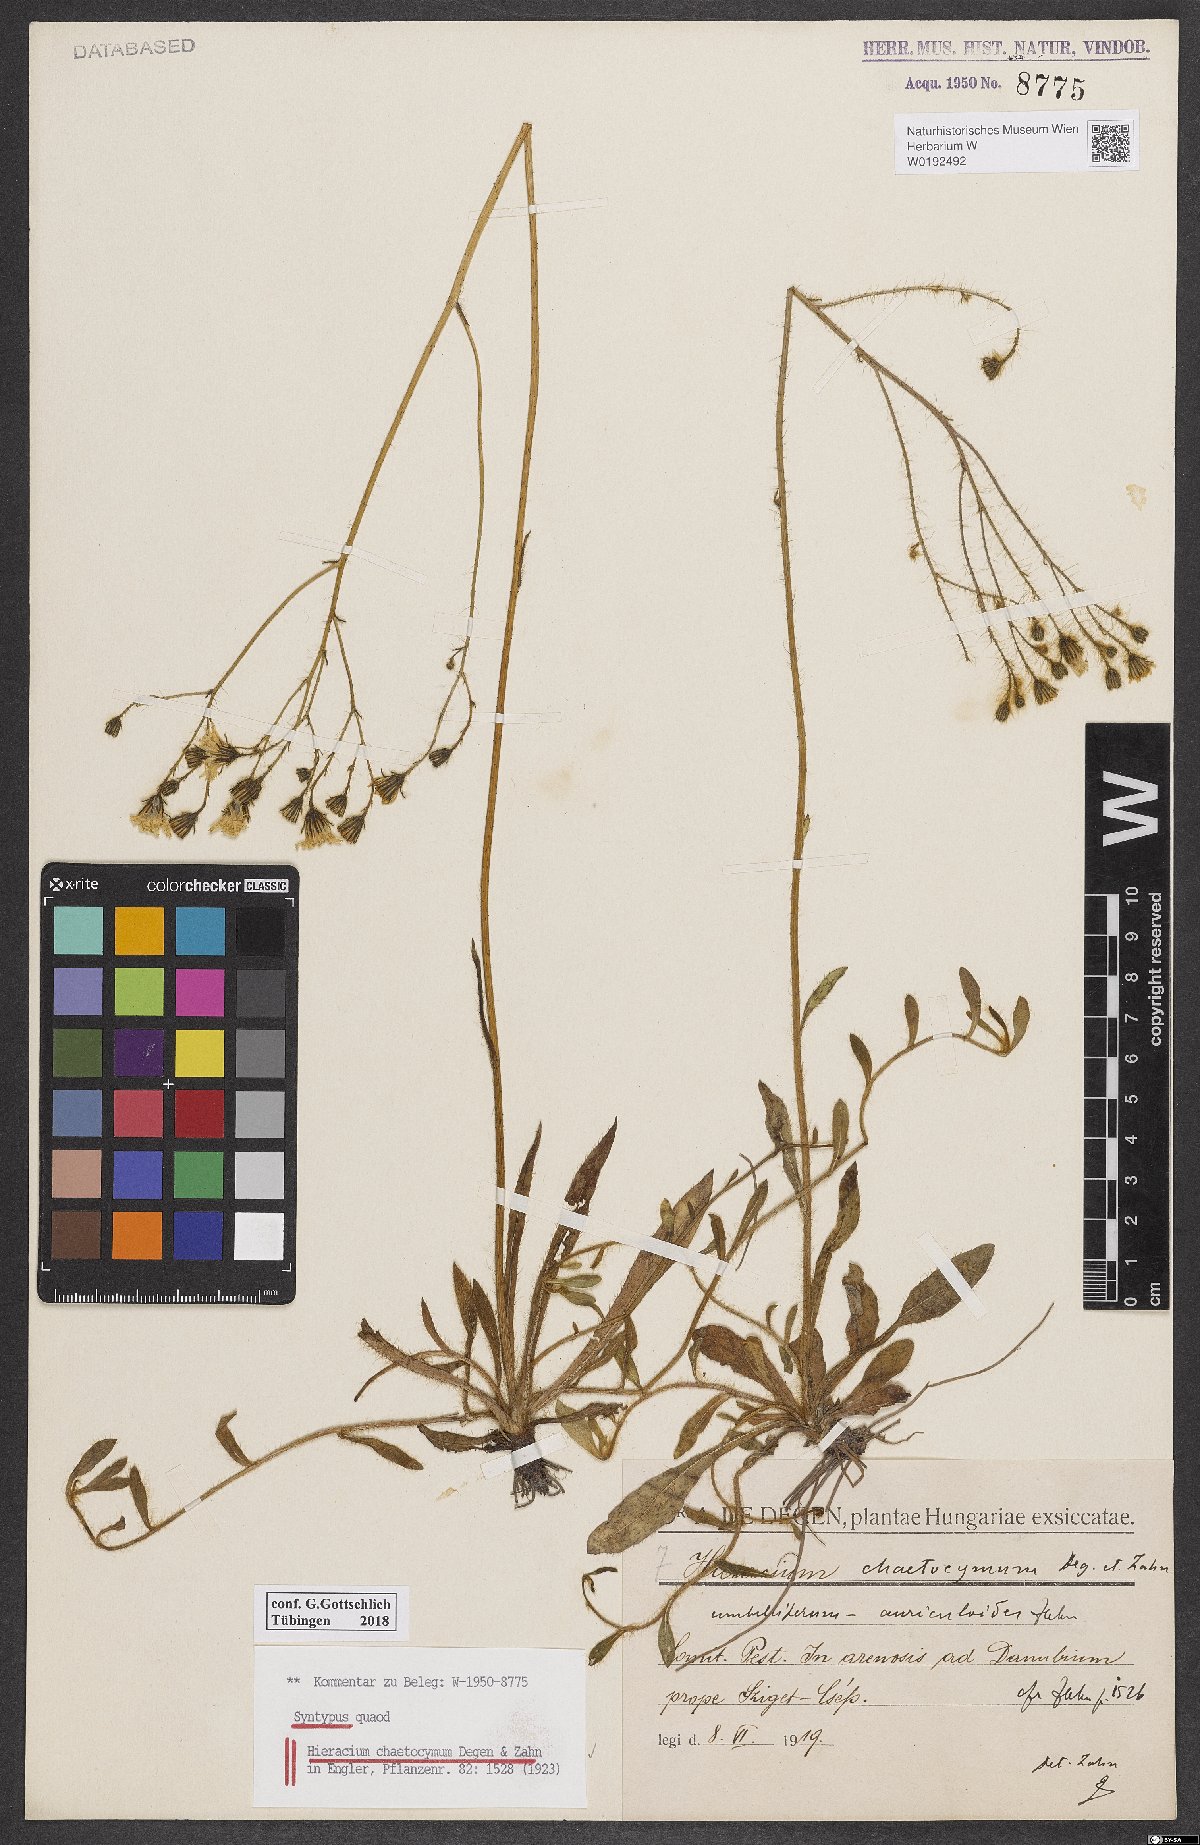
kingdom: Plantae
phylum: Tracheophyta
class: Magnoliopsida
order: Asterales
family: Asteraceae
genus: Pilosella
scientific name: Pilosella megatricha
